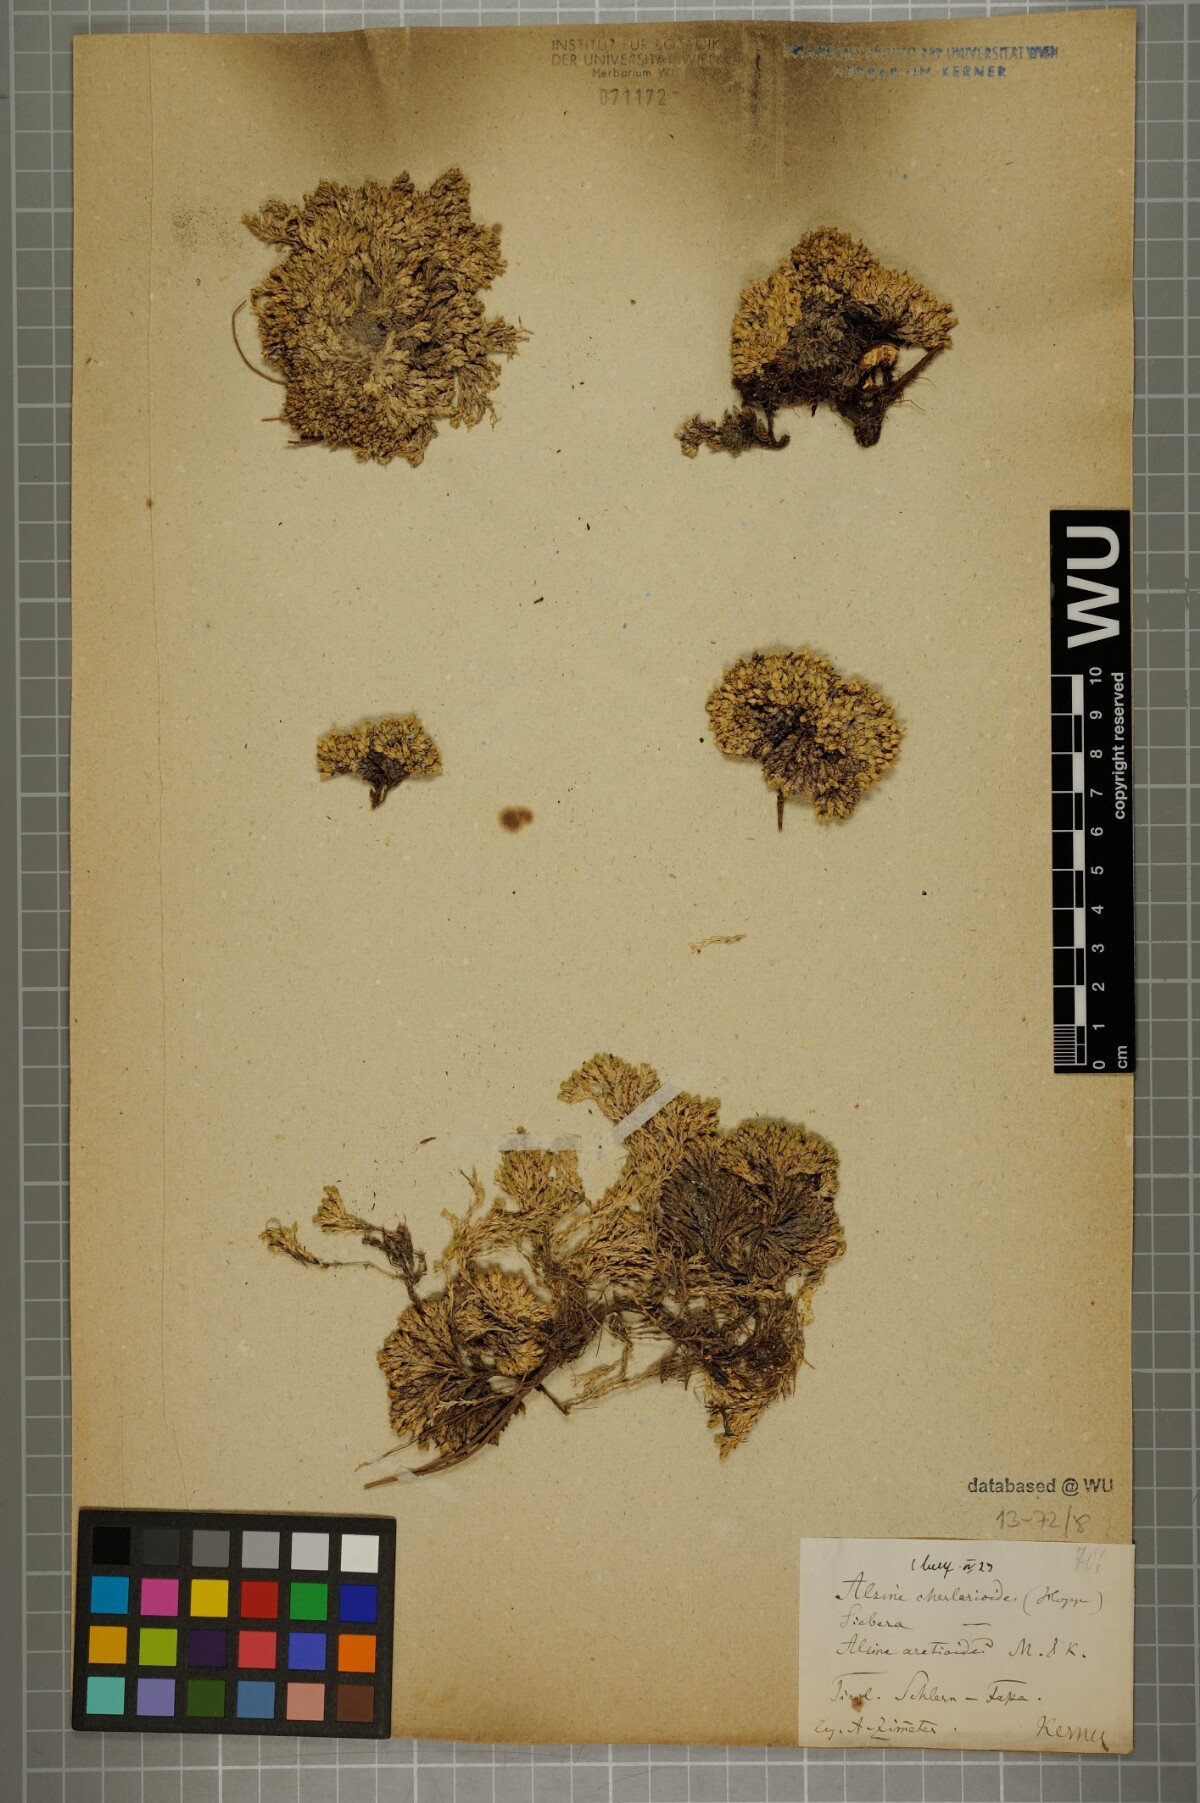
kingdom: Plantae
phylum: Tracheophyta
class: Magnoliopsida
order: Caryophyllales
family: Caryophyllaceae
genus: Facchinia
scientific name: Facchinia cherlerioides
